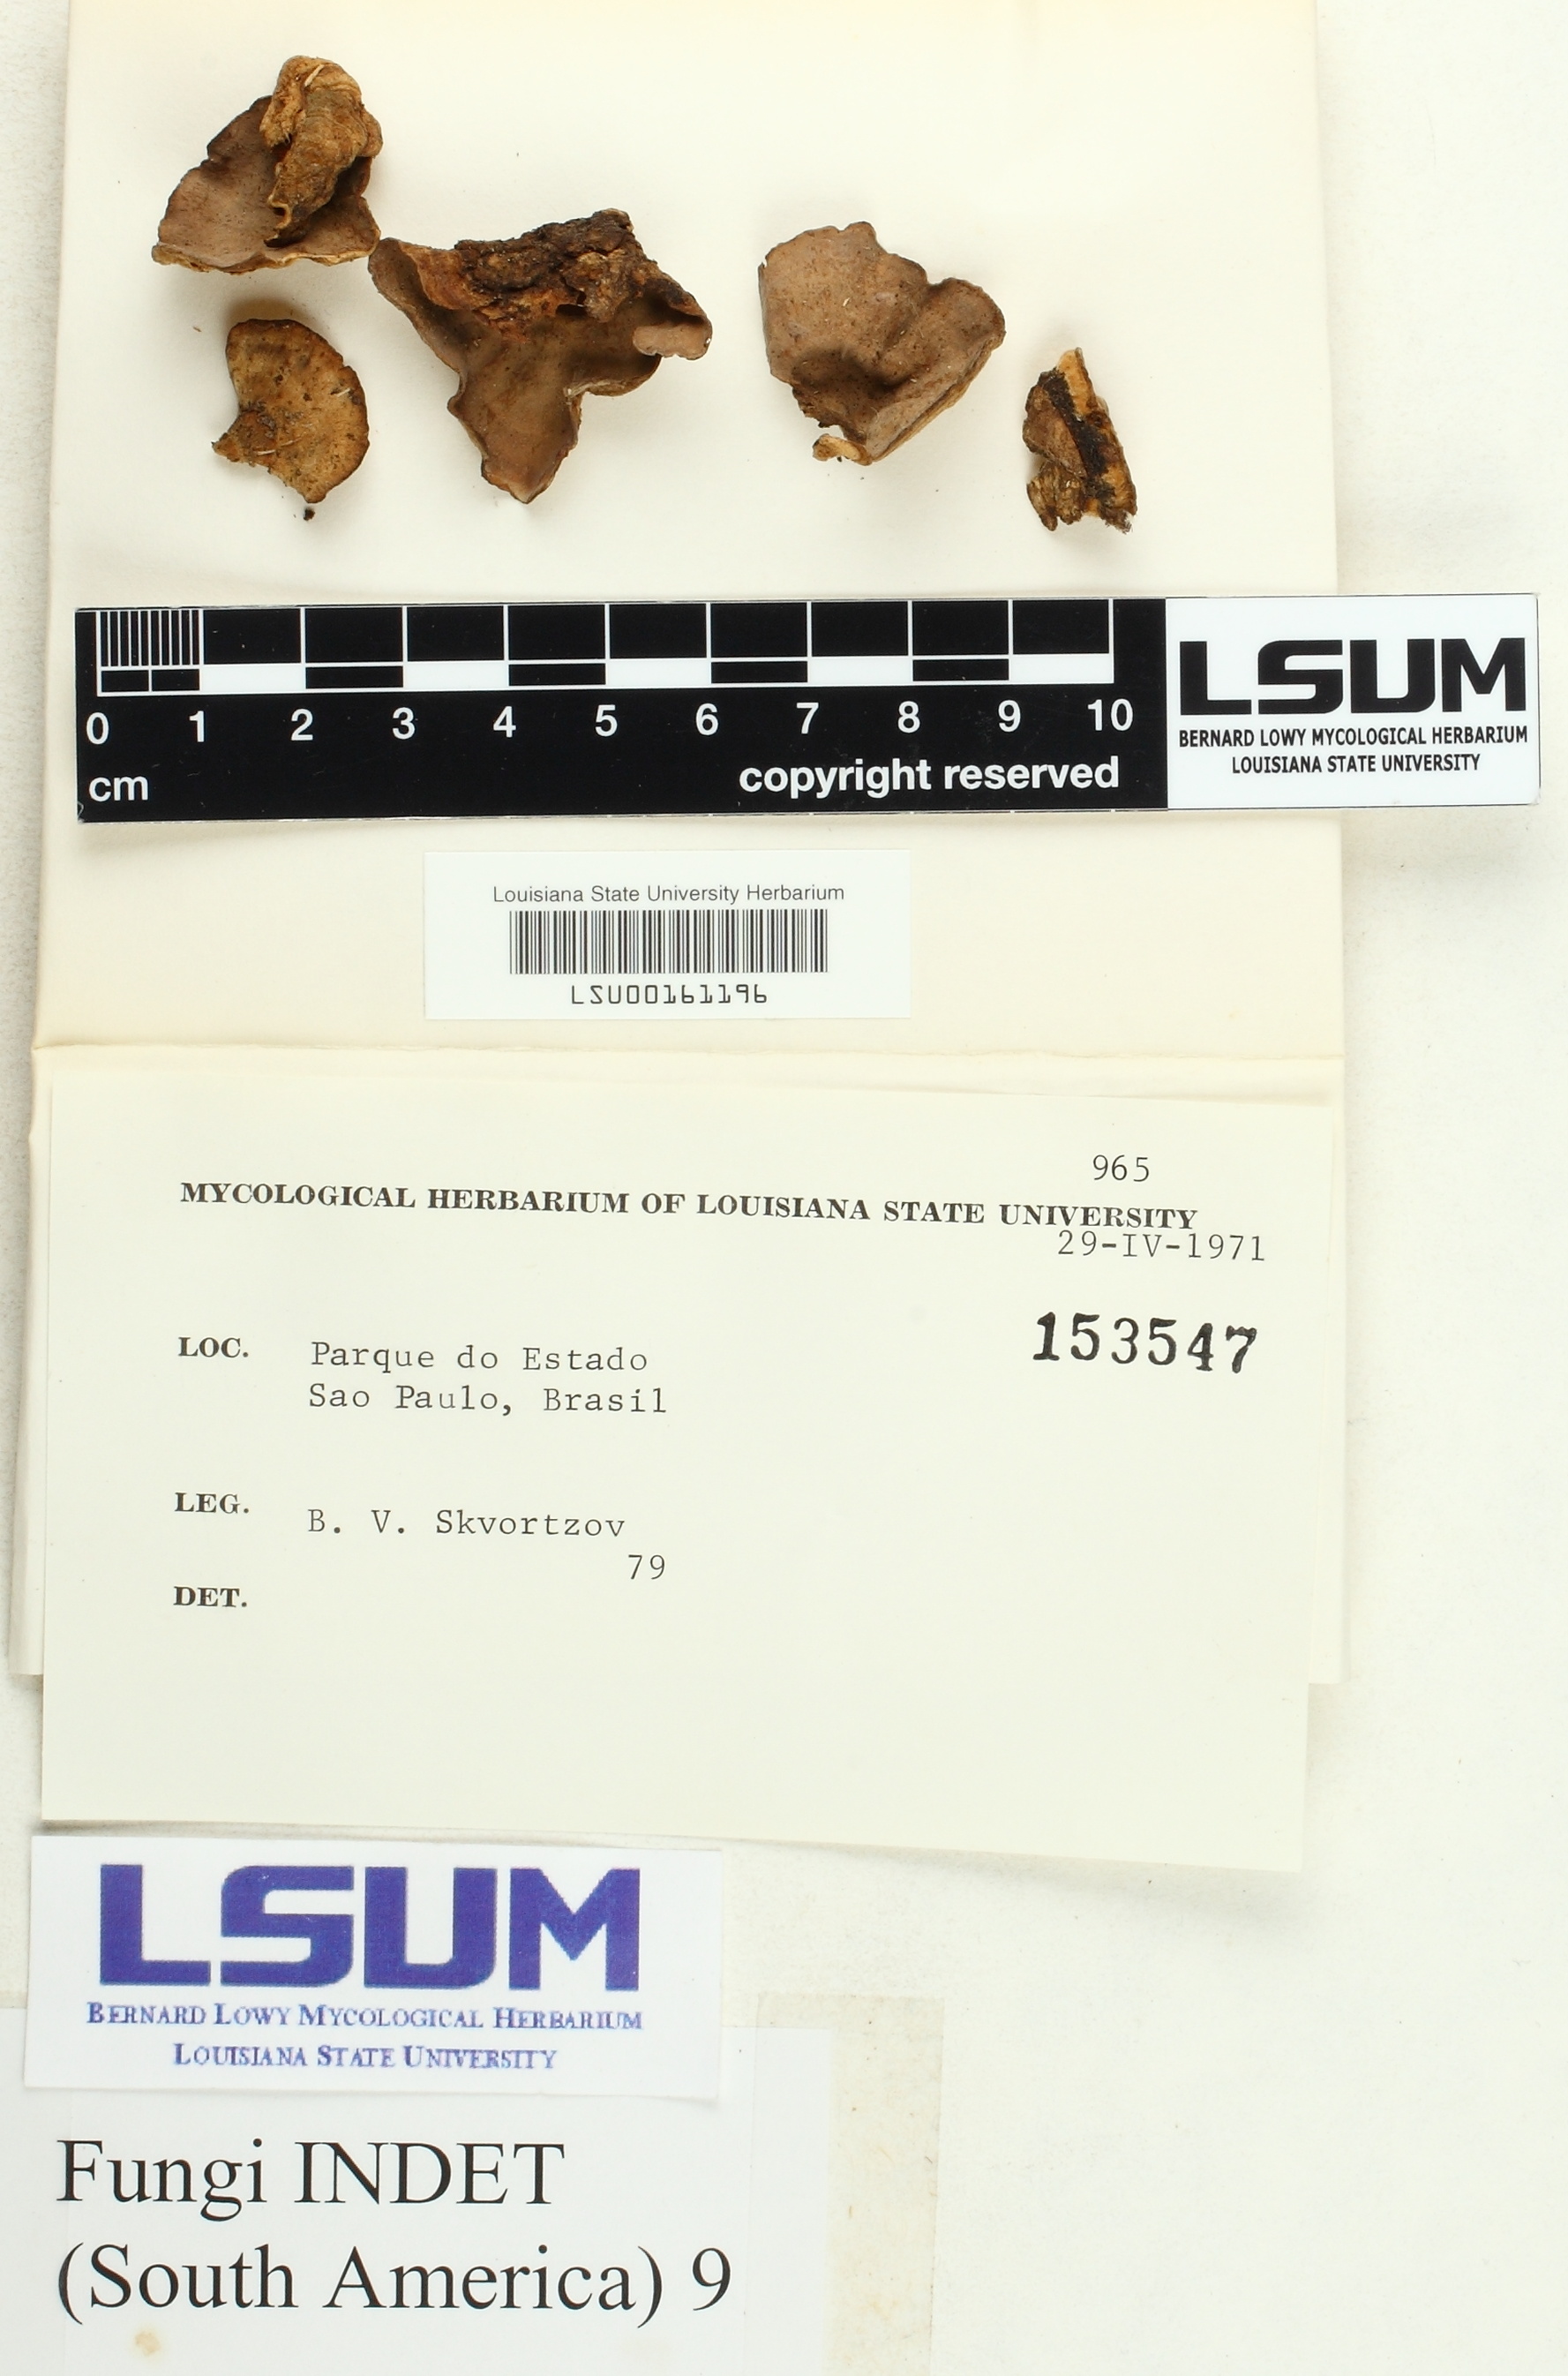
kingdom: Fungi
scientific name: Fungi
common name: Fungi
